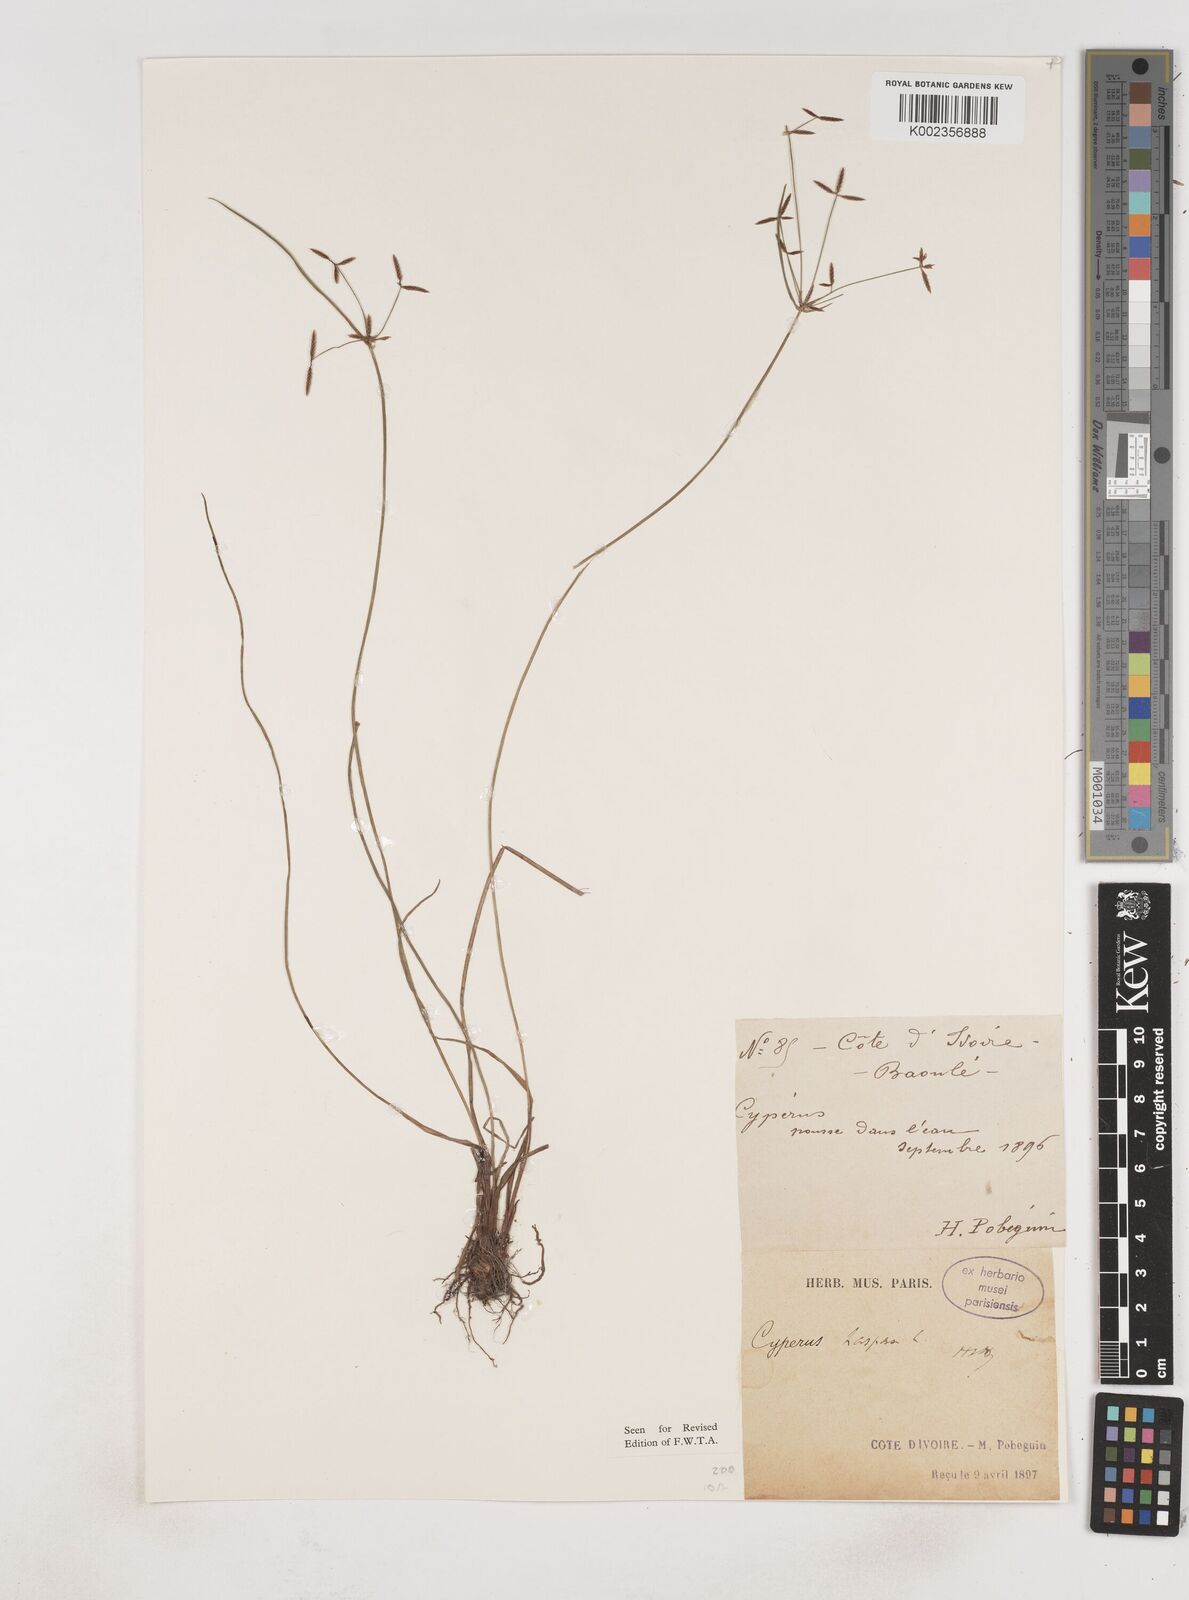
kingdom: Plantae
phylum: Tracheophyta
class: Liliopsida
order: Poales
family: Cyperaceae
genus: Cyperus
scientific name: Cyperus haspan
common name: Haspan flatsedge
